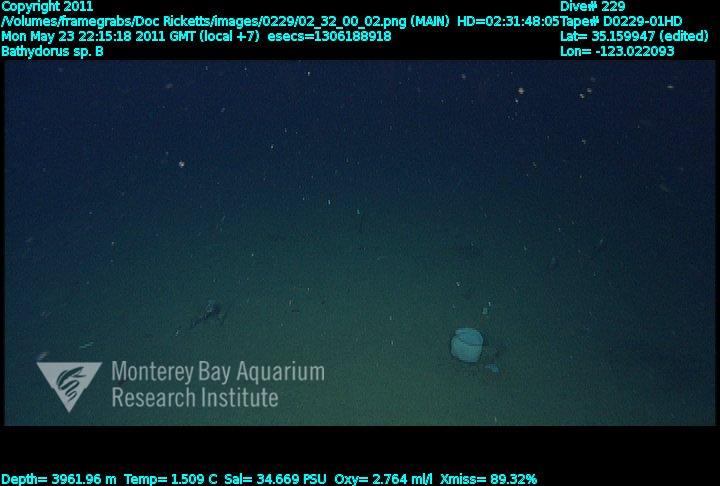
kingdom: Animalia
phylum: Porifera
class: Hexactinellida
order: Lyssacinosida
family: Rossellidae
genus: Bathydorus
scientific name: Bathydorus
